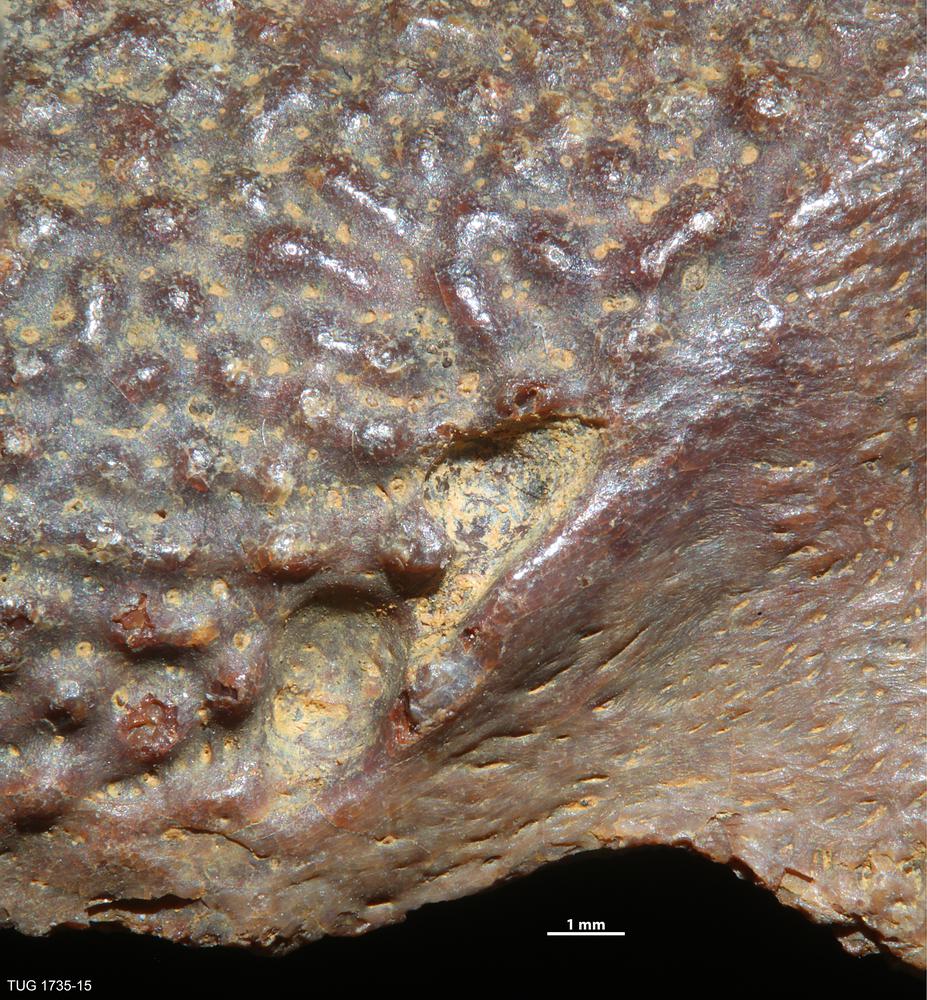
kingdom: Animalia
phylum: Chordata
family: Asterolepididae
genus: Asterolepis
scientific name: Asterolepis ornata
